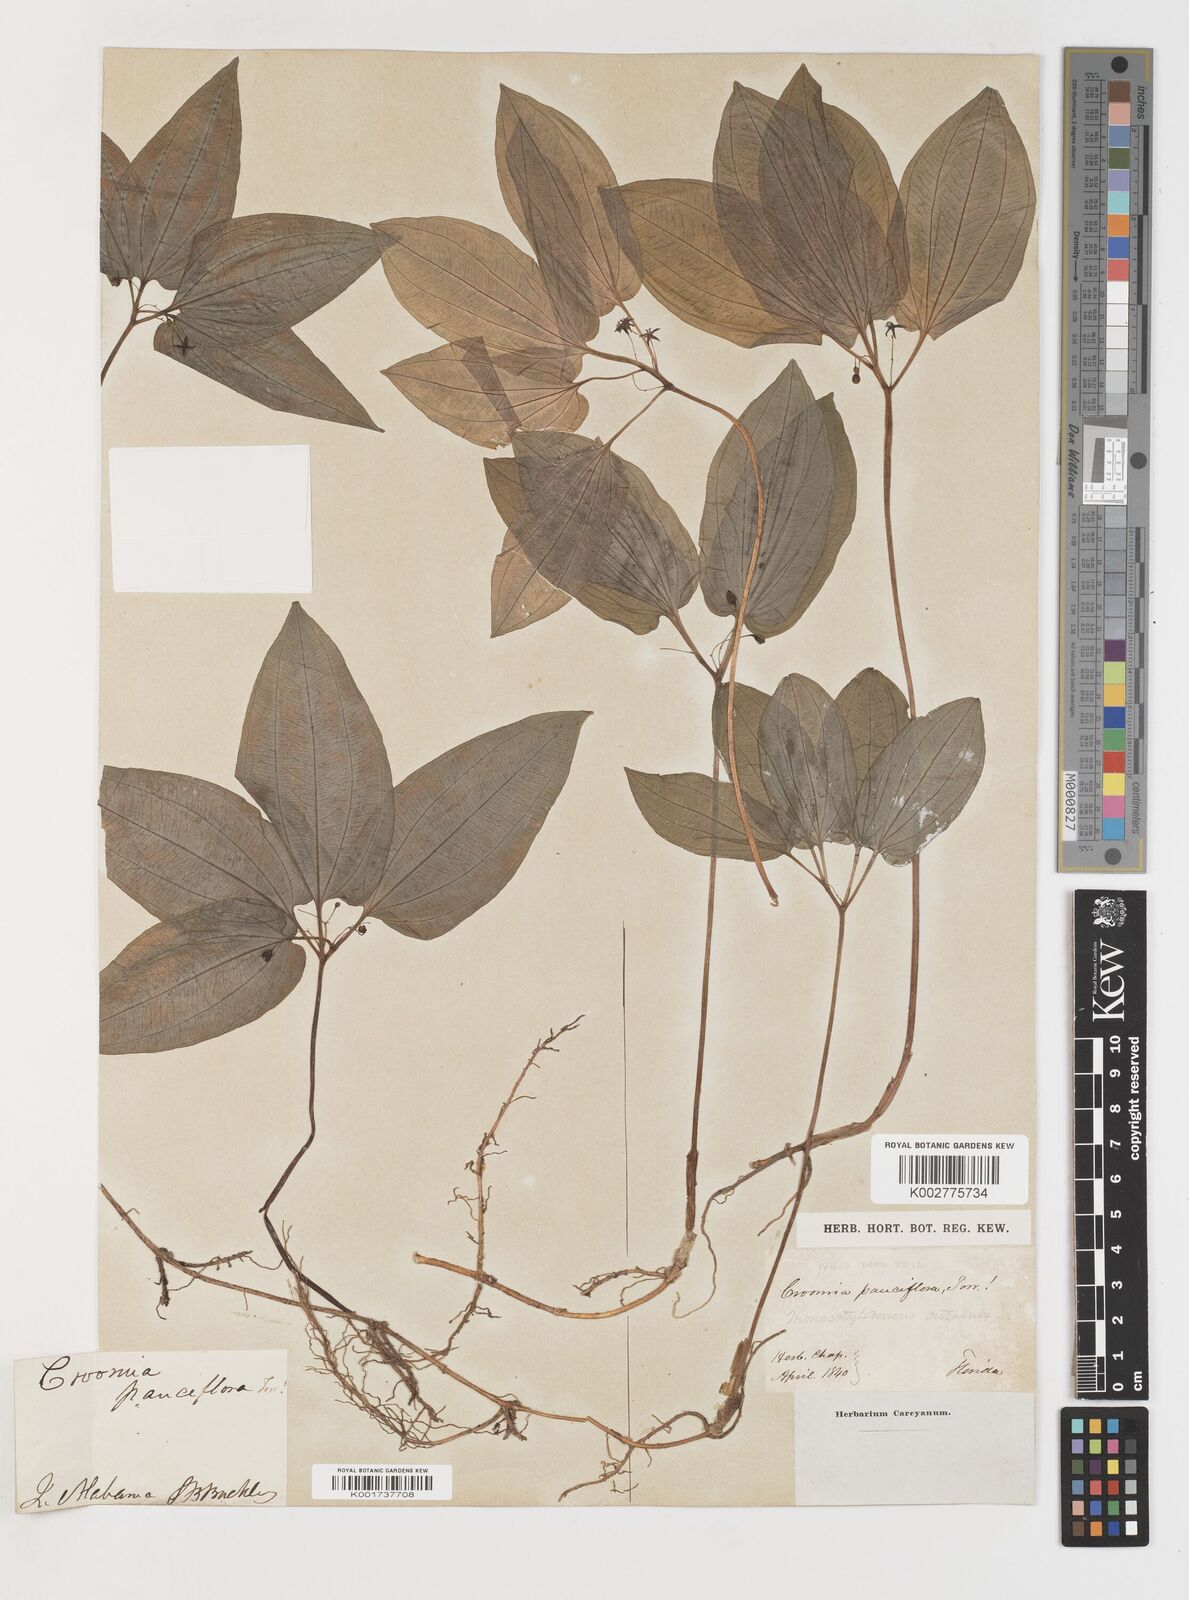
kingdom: Plantae
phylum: Tracheophyta
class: Liliopsida
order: Pandanales
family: Stemonaceae
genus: Croomia
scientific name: Croomia pauciflora
